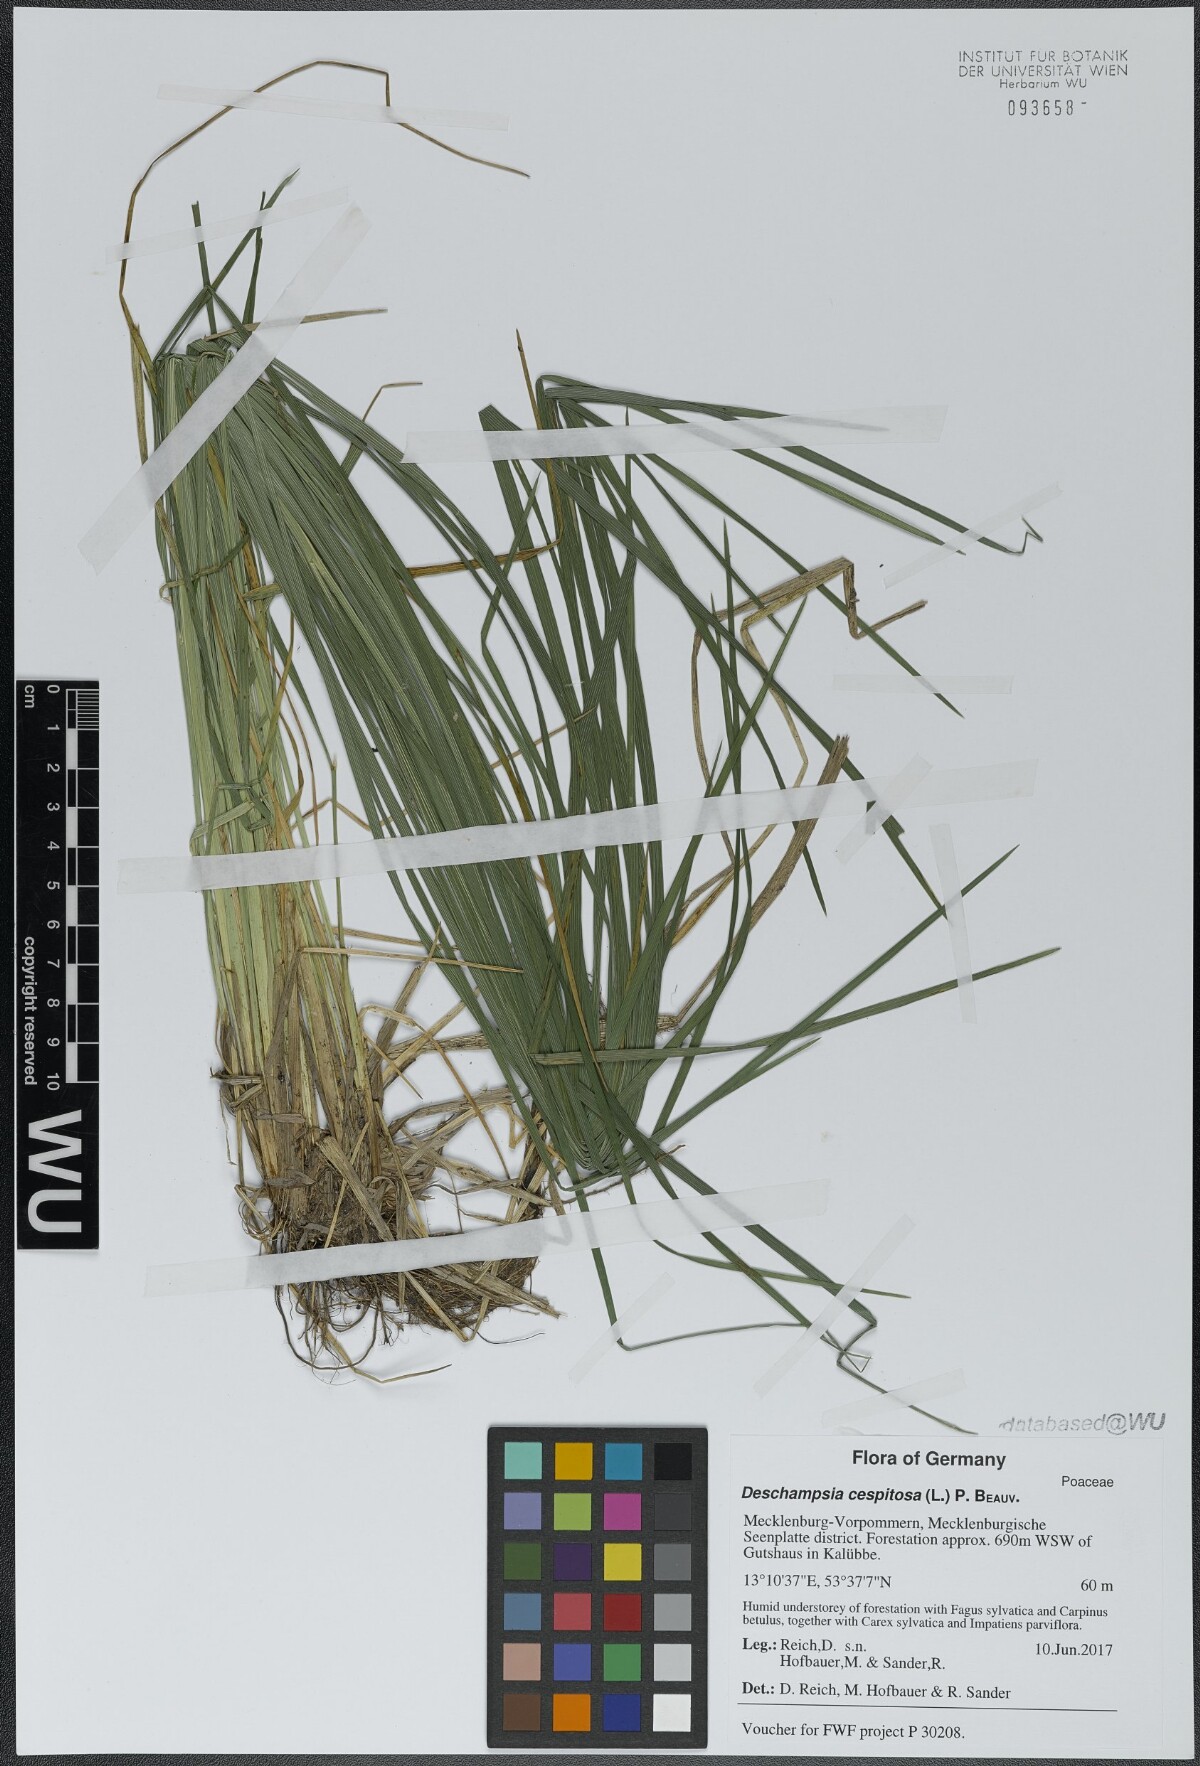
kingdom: Plantae
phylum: Tracheophyta
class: Liliopsida
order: Poales
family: Poaceae
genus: Deschampsia
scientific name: Deschampsia cespitosa
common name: Tufted hair-grass
